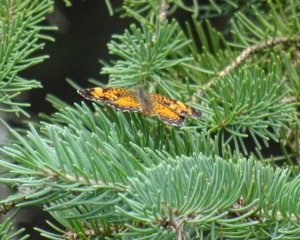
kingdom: Animalia
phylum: Arthropoda
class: Insecta
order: Lepidoptera
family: Nymphalidae
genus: Phyciodes
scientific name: Phyciodes
